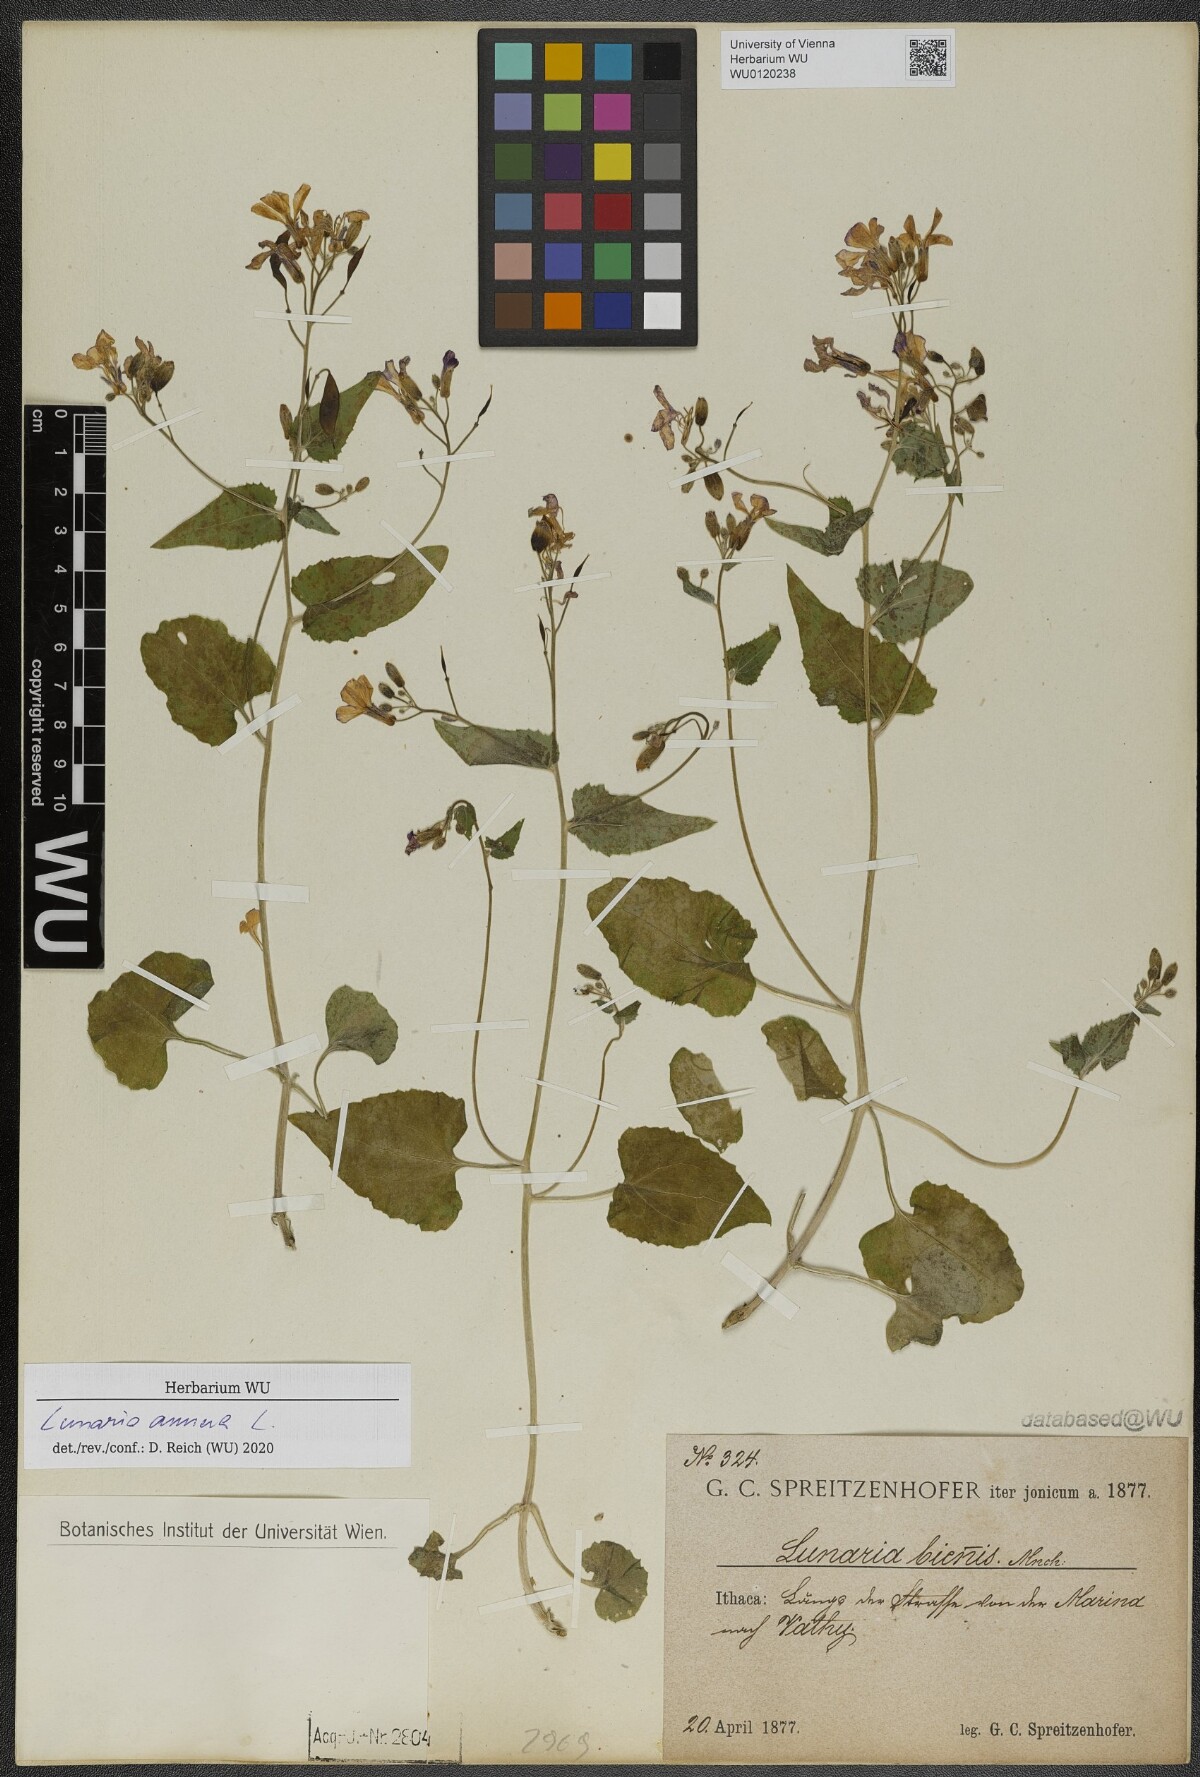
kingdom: Plantae
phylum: Tracheophyta
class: Magnoliopsida
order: Brassicales
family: Brassicaceae
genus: Lunaria
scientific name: Lunaria annua
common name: Honesty
